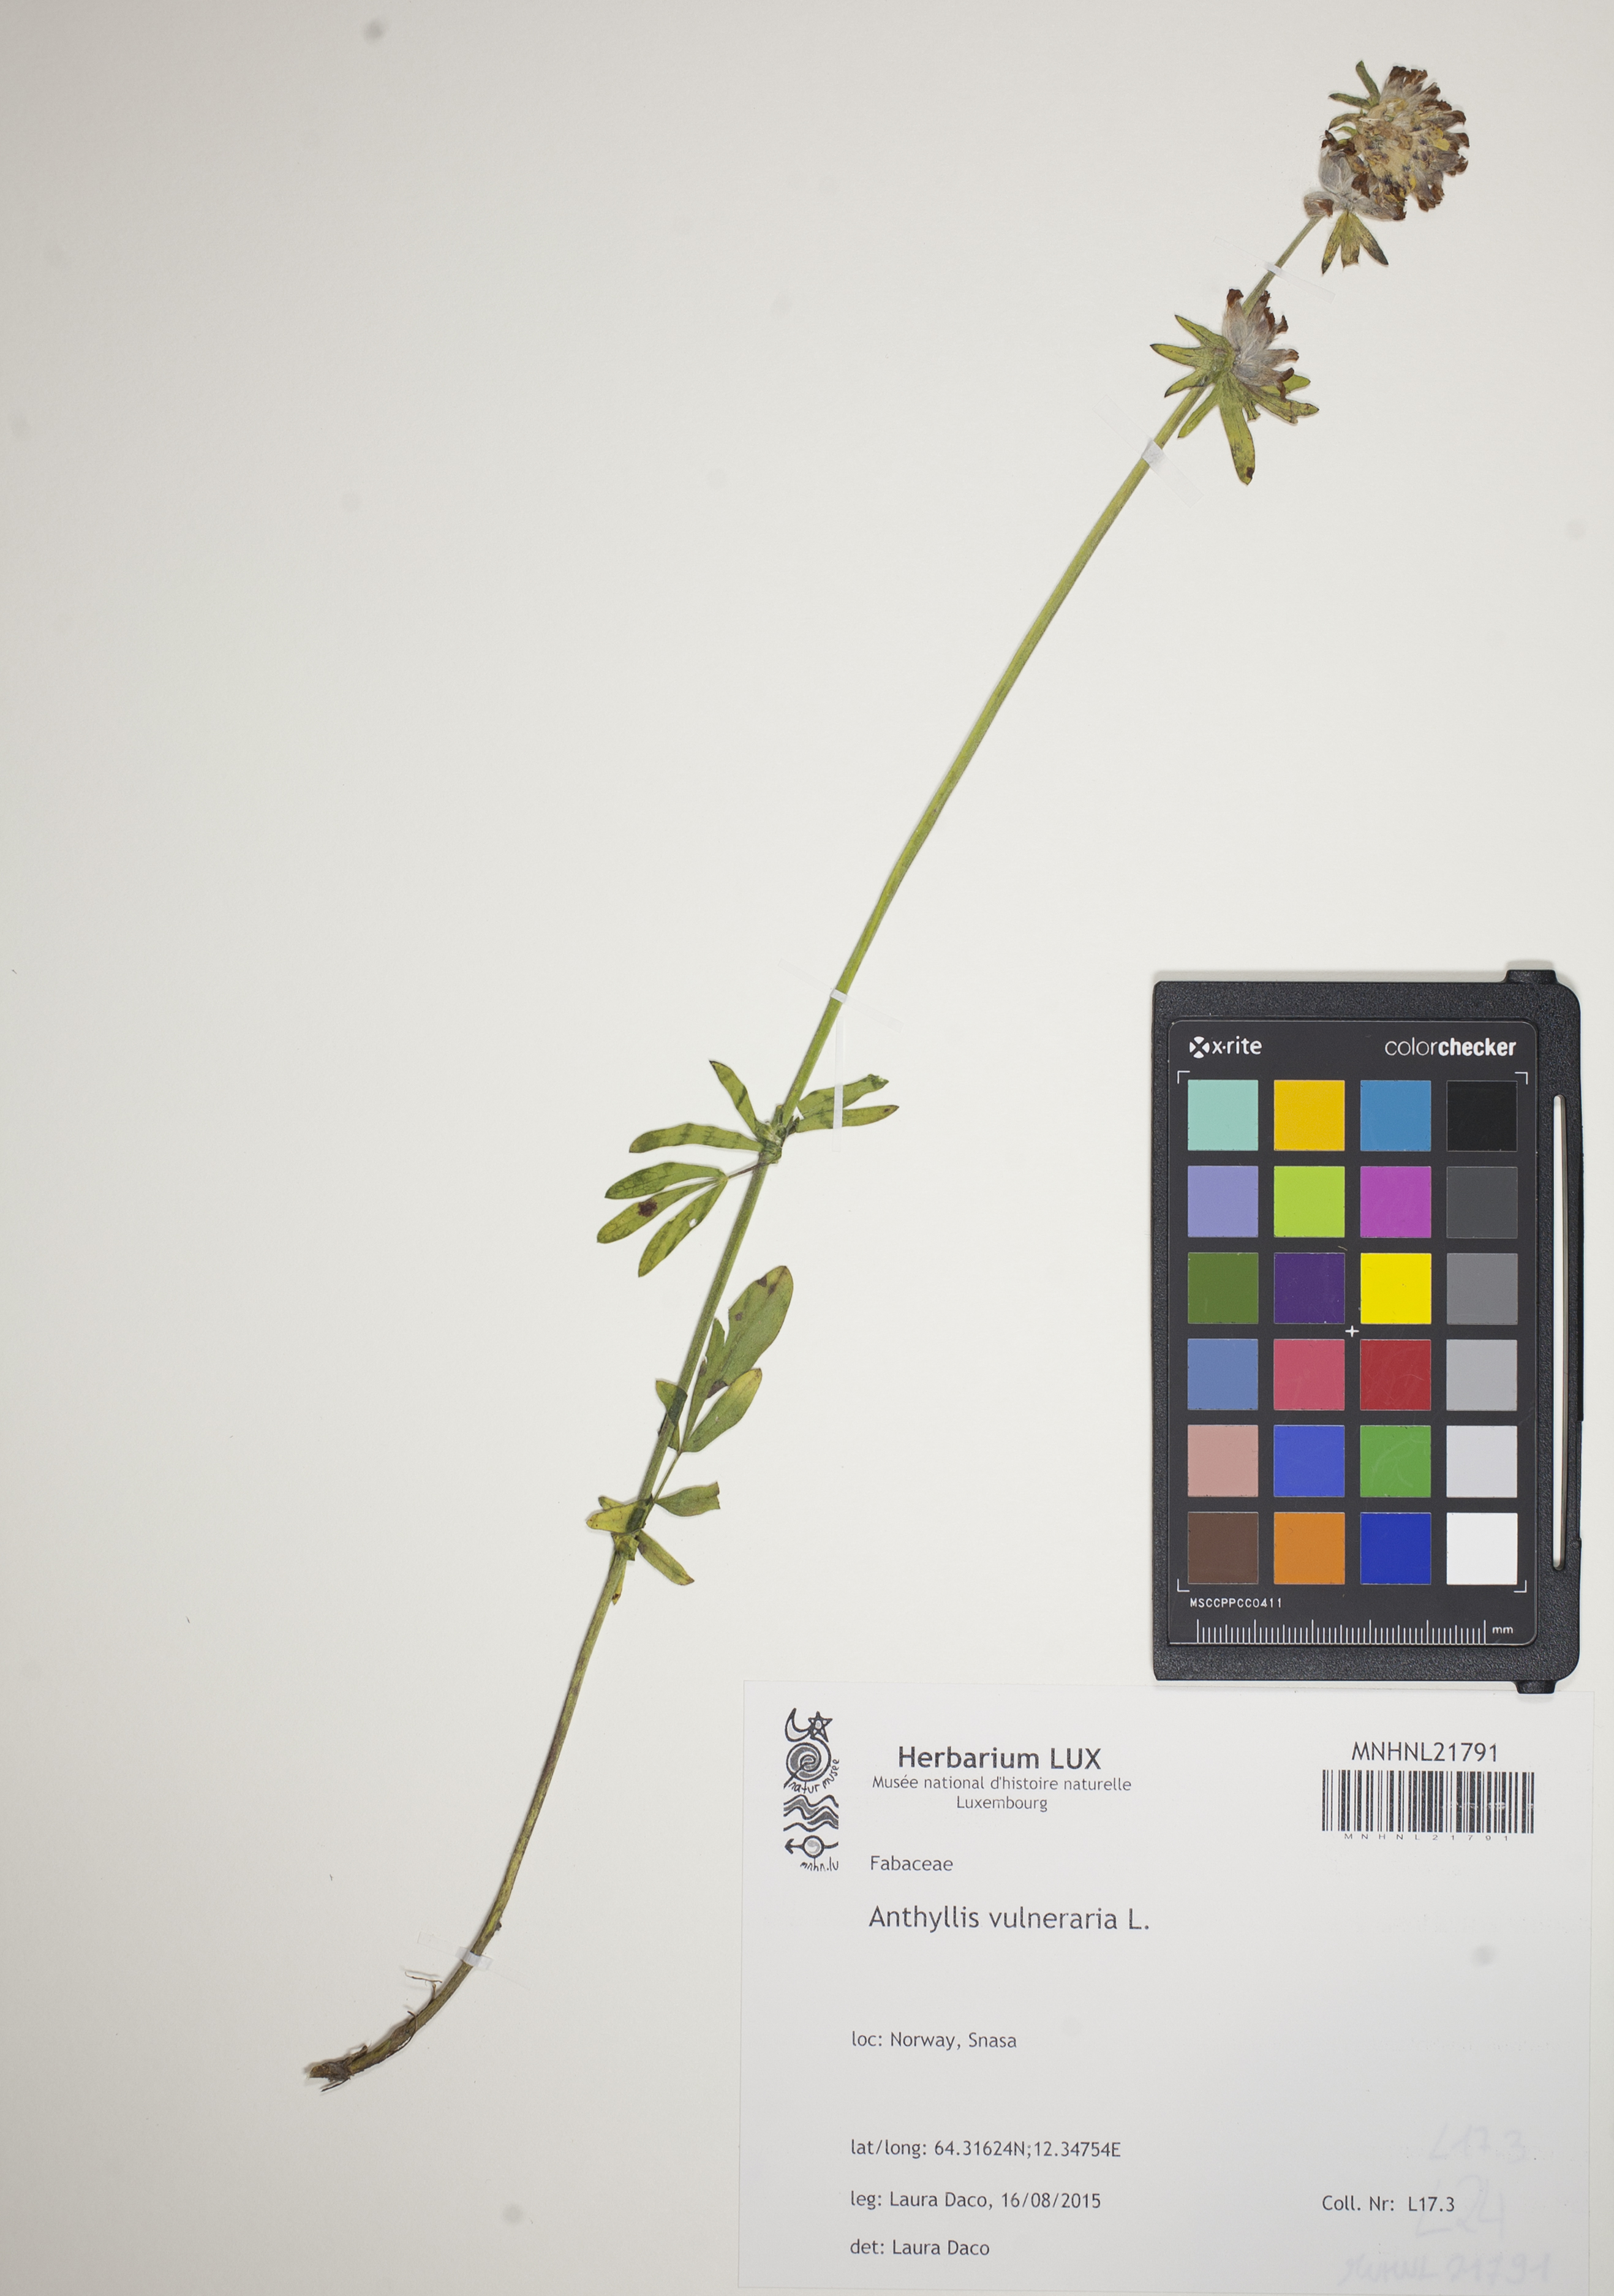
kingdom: Plantae
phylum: Tracheophyta
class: Magnoliopsida
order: Fabales
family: Fabaceae
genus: Anthyllis
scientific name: Anthyllis vulneraria
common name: Kidney vetch
